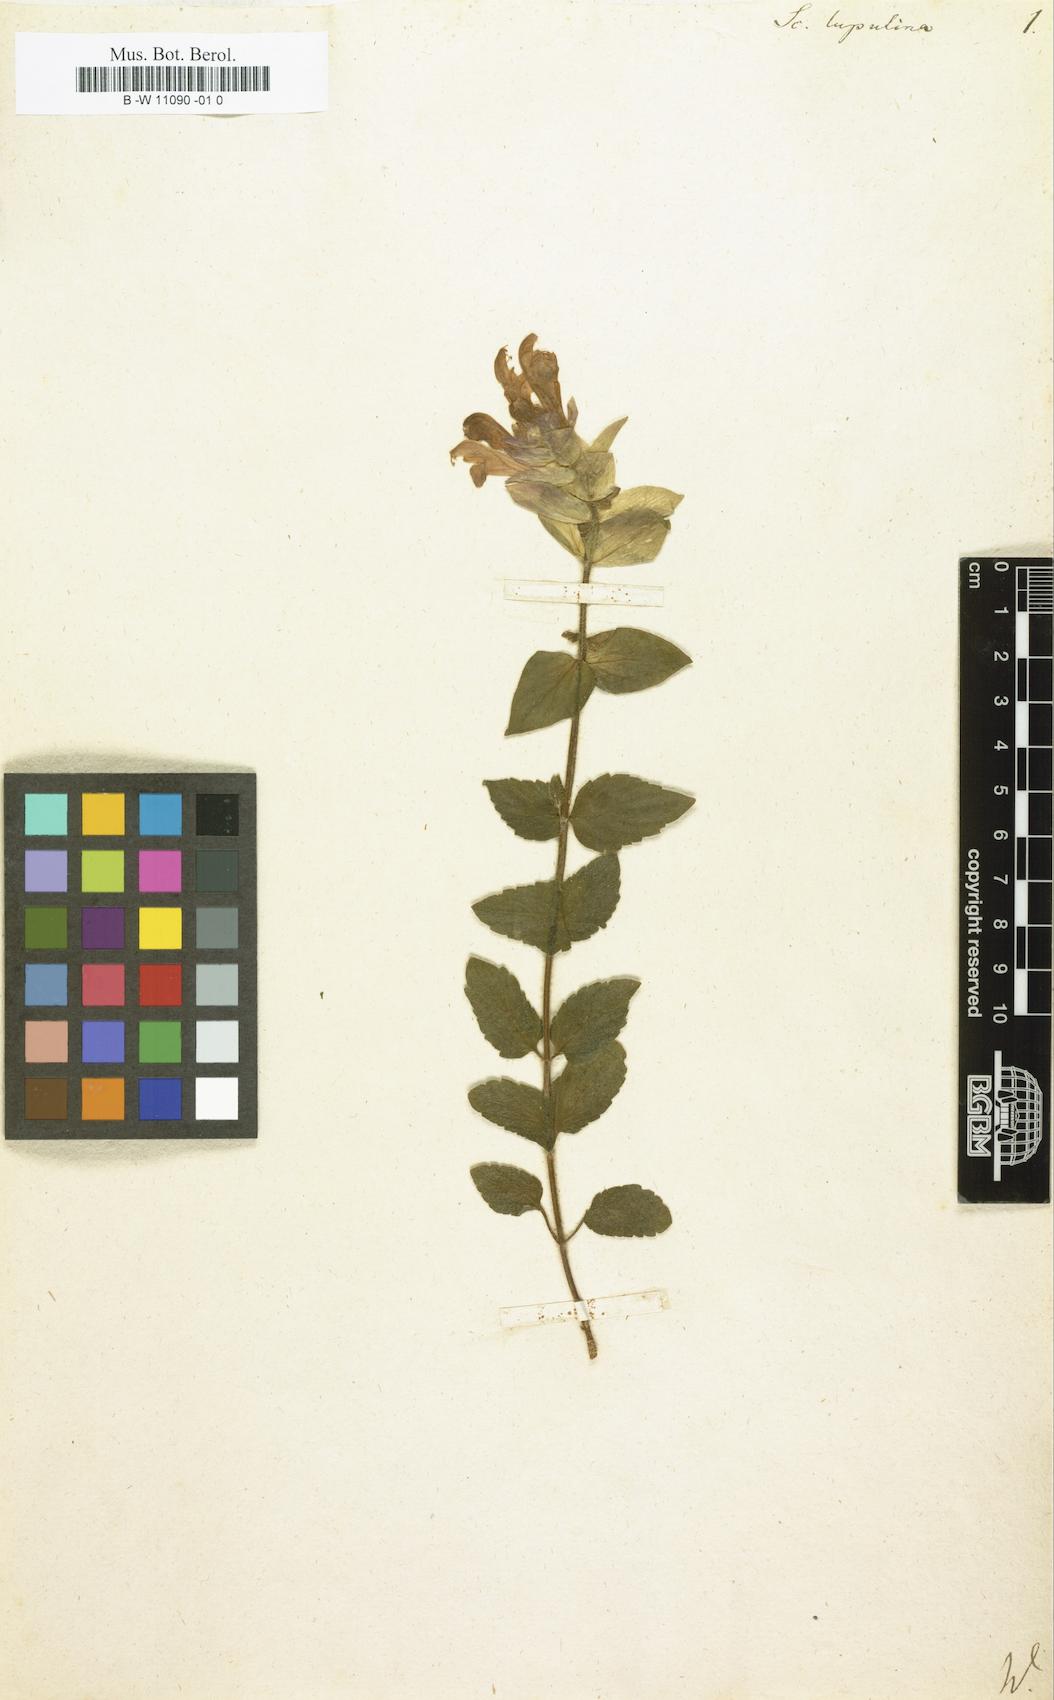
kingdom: Plantae
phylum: Tracheophyta
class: Magnoliopsida
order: Lamiales
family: Lamiaceae
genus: Scutellaria
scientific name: Scutellaria alpina
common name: Alpine scullcap
